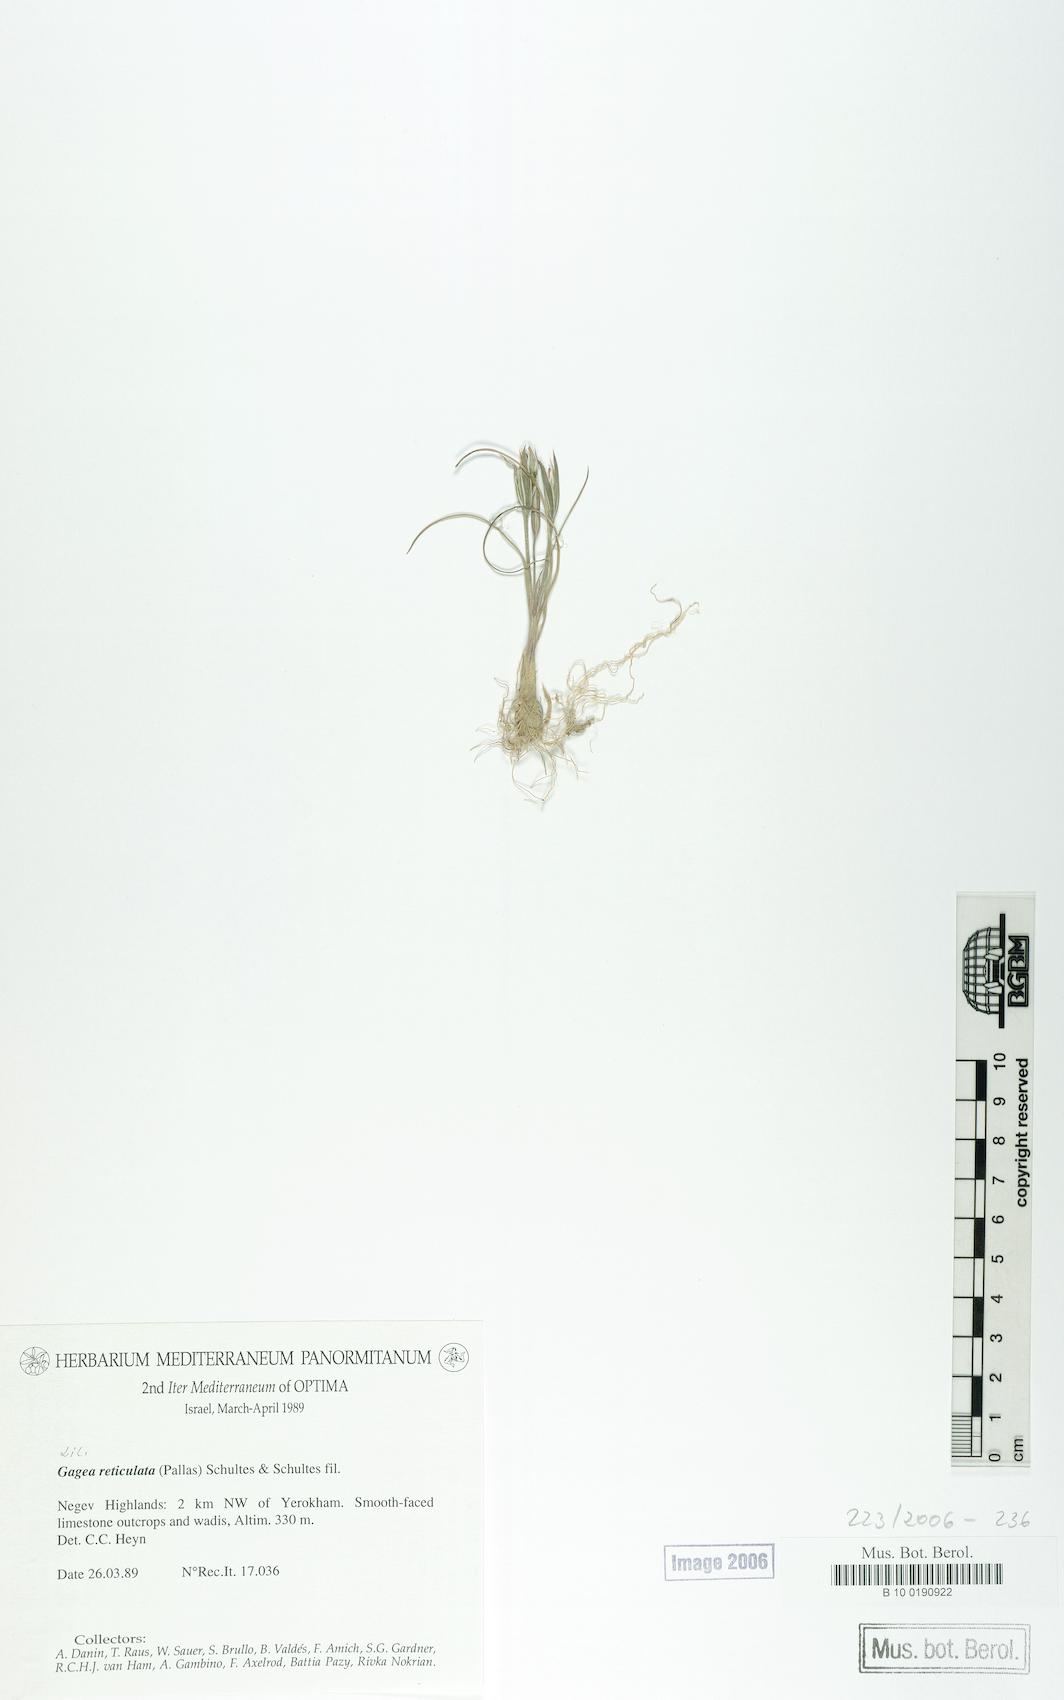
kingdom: Plantae
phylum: Tracheophyta
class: Liliopsida
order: Liliales
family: Liliaceae
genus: Gagea
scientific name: Gagea reticulata
